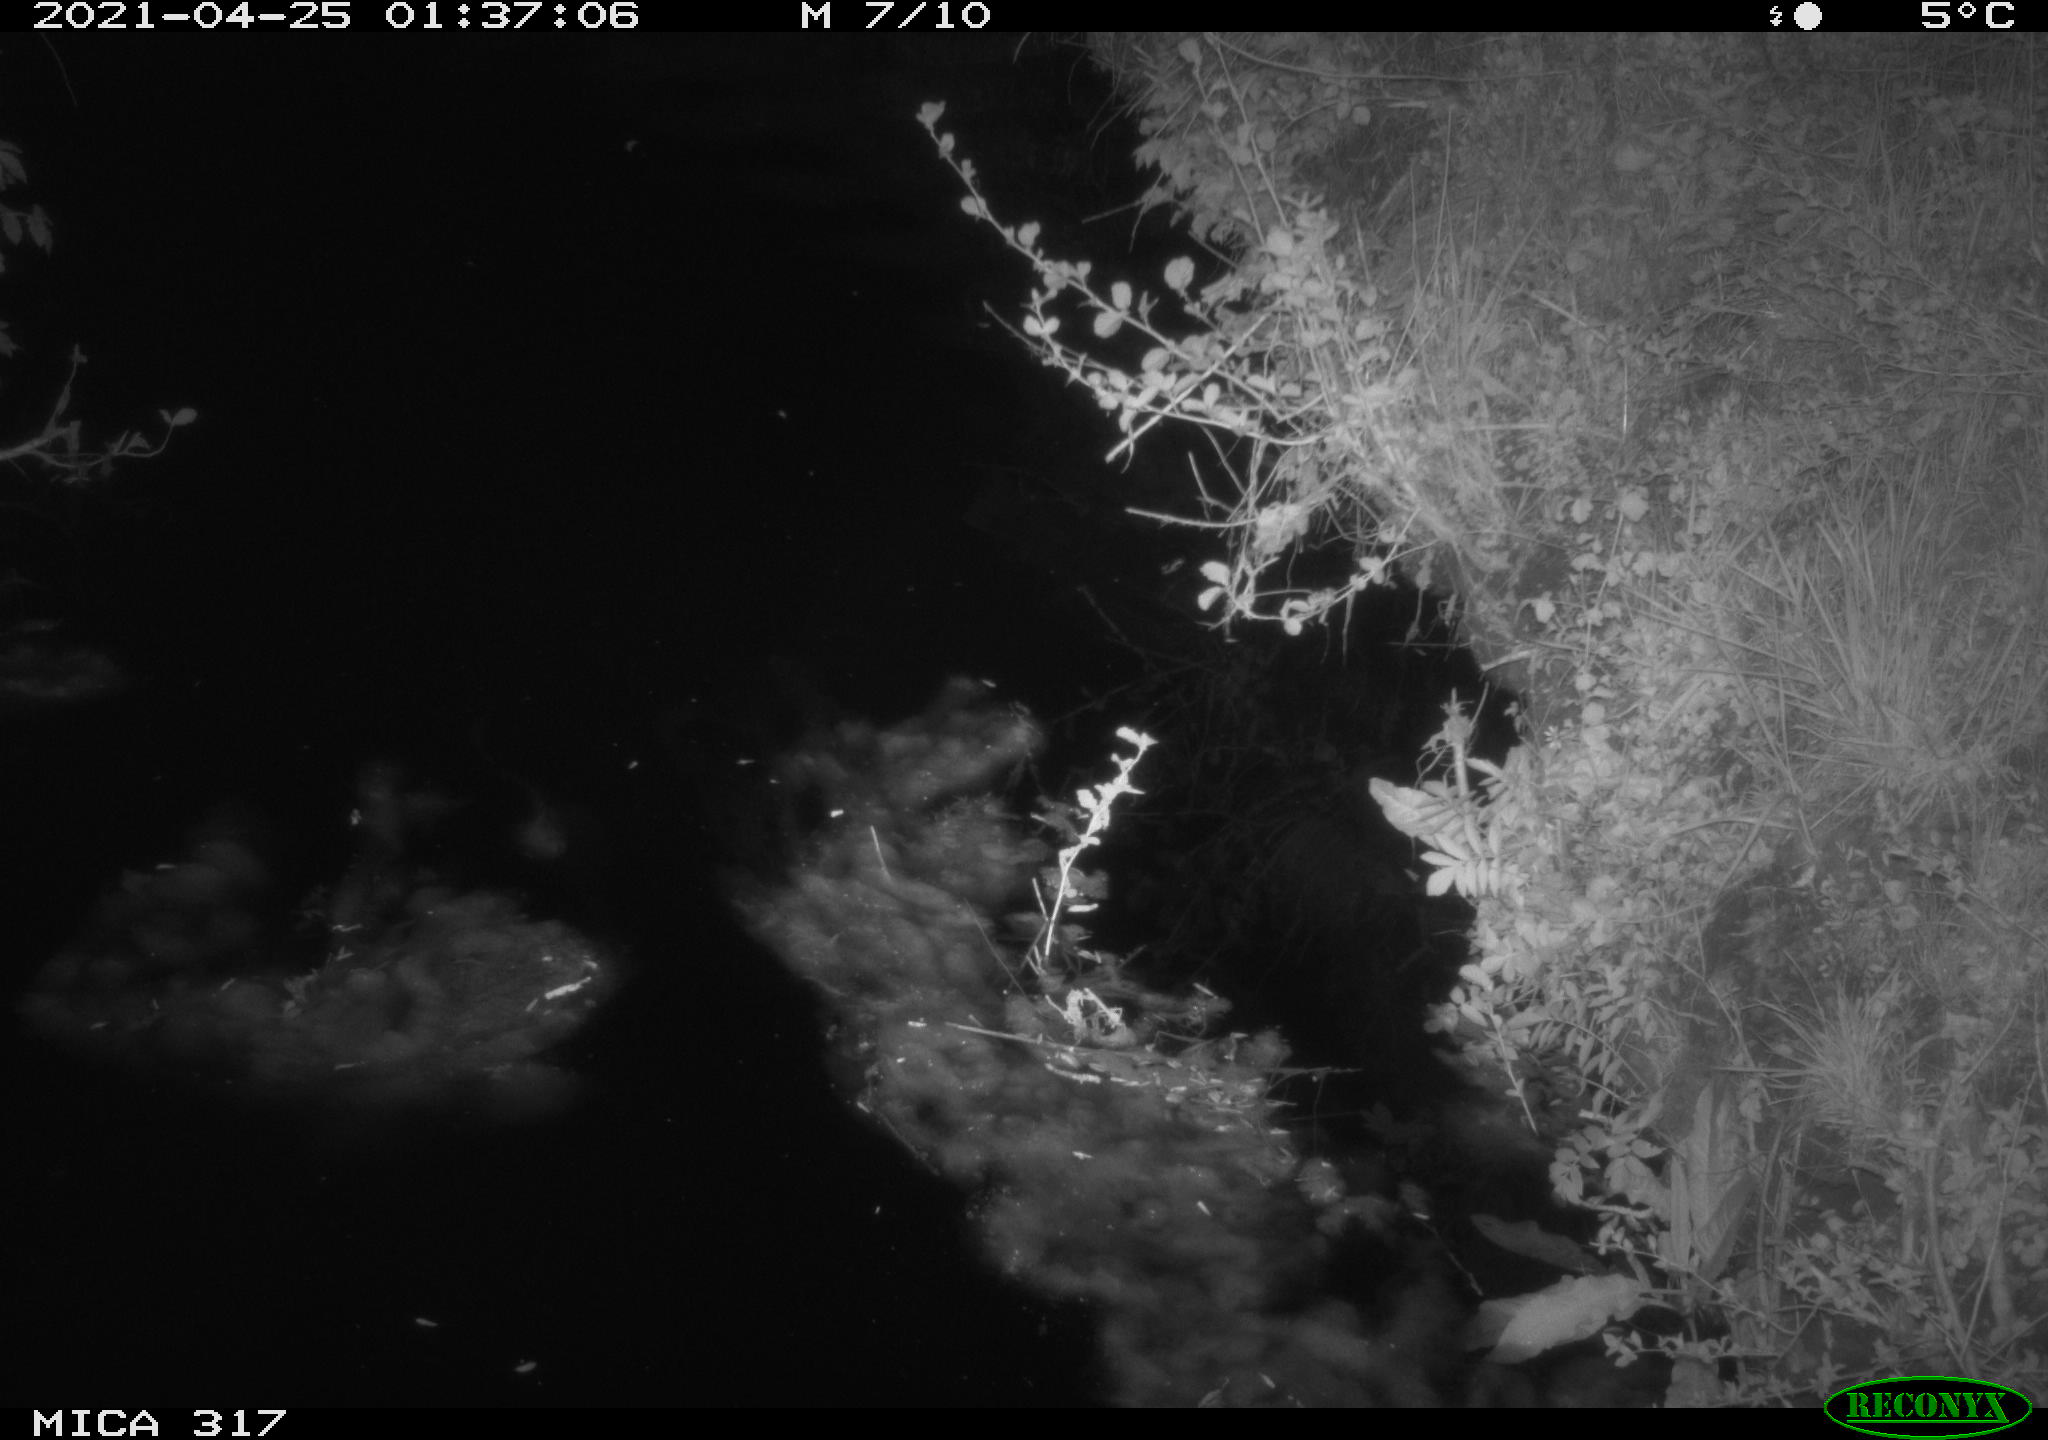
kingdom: Animalia
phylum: Chordata
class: Aves
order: Anseriformes
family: Anatidae
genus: Anas
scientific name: Anas
